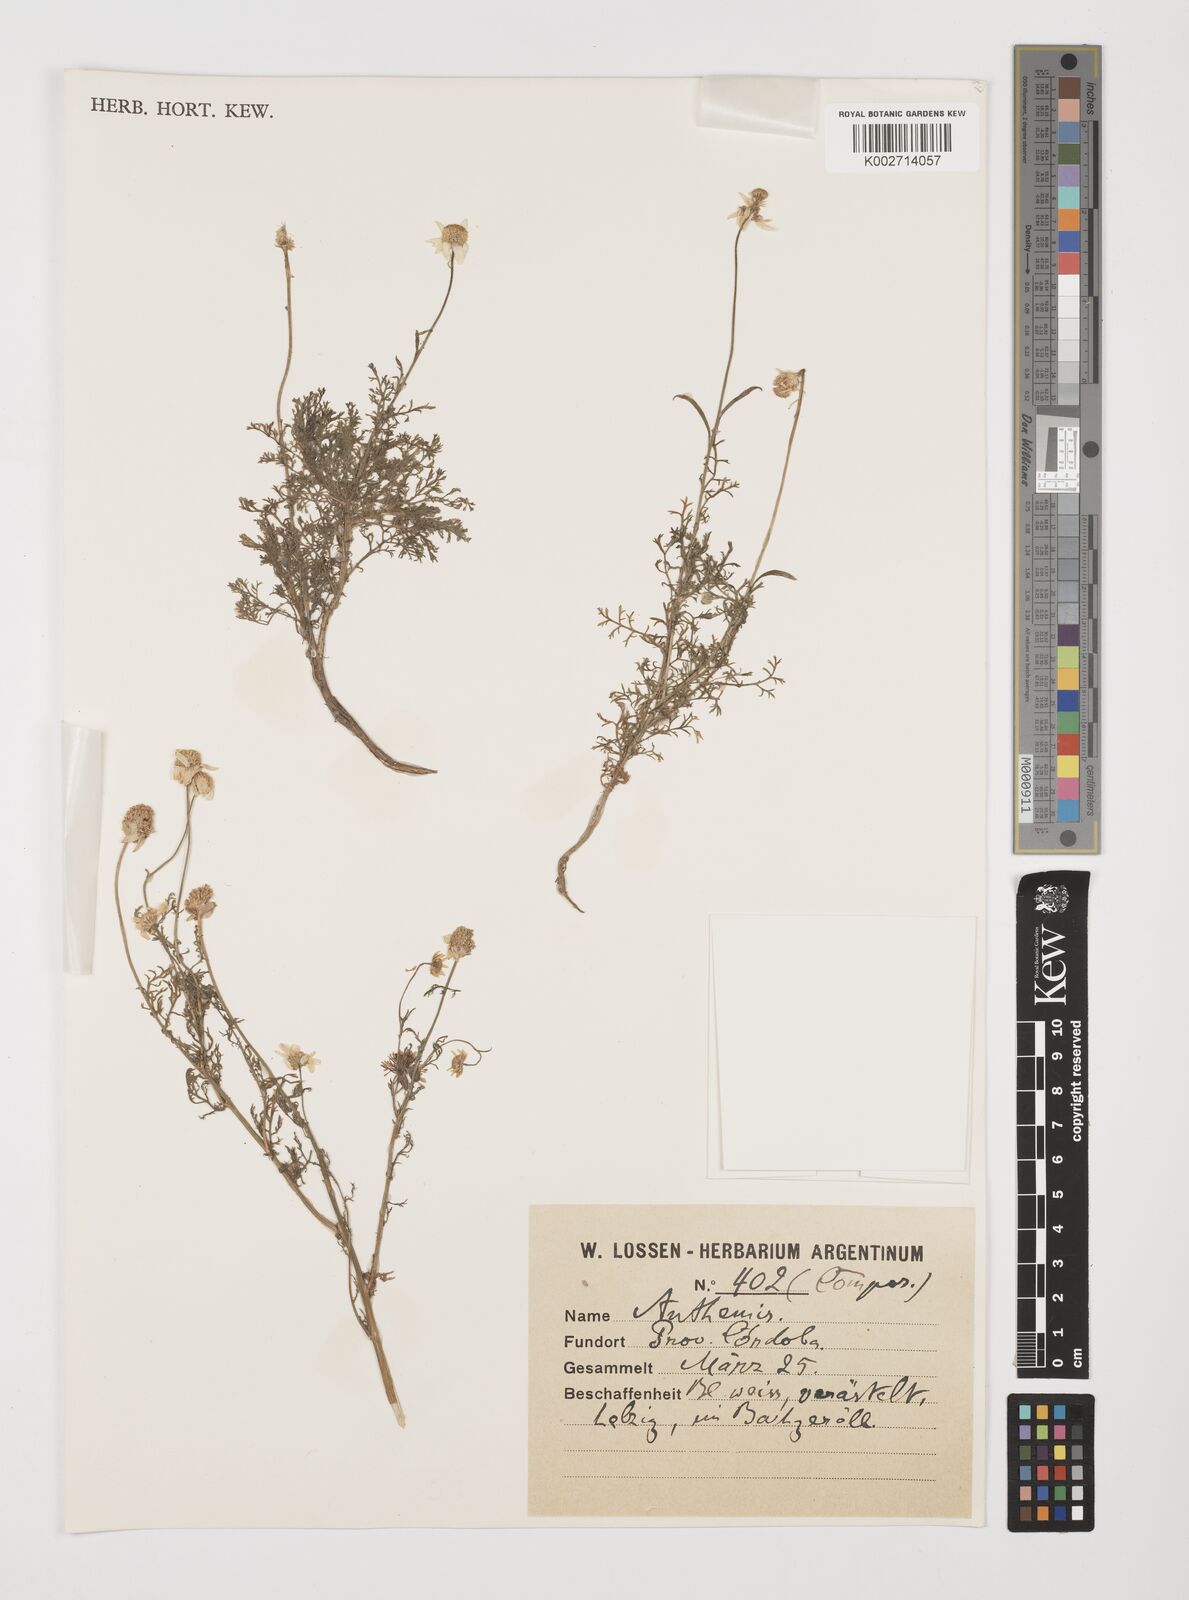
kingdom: Plantae
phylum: Tracheophyta
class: Magnoliopsida
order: Asterales
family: Asteraceae
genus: Anthemis
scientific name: Anthemis
